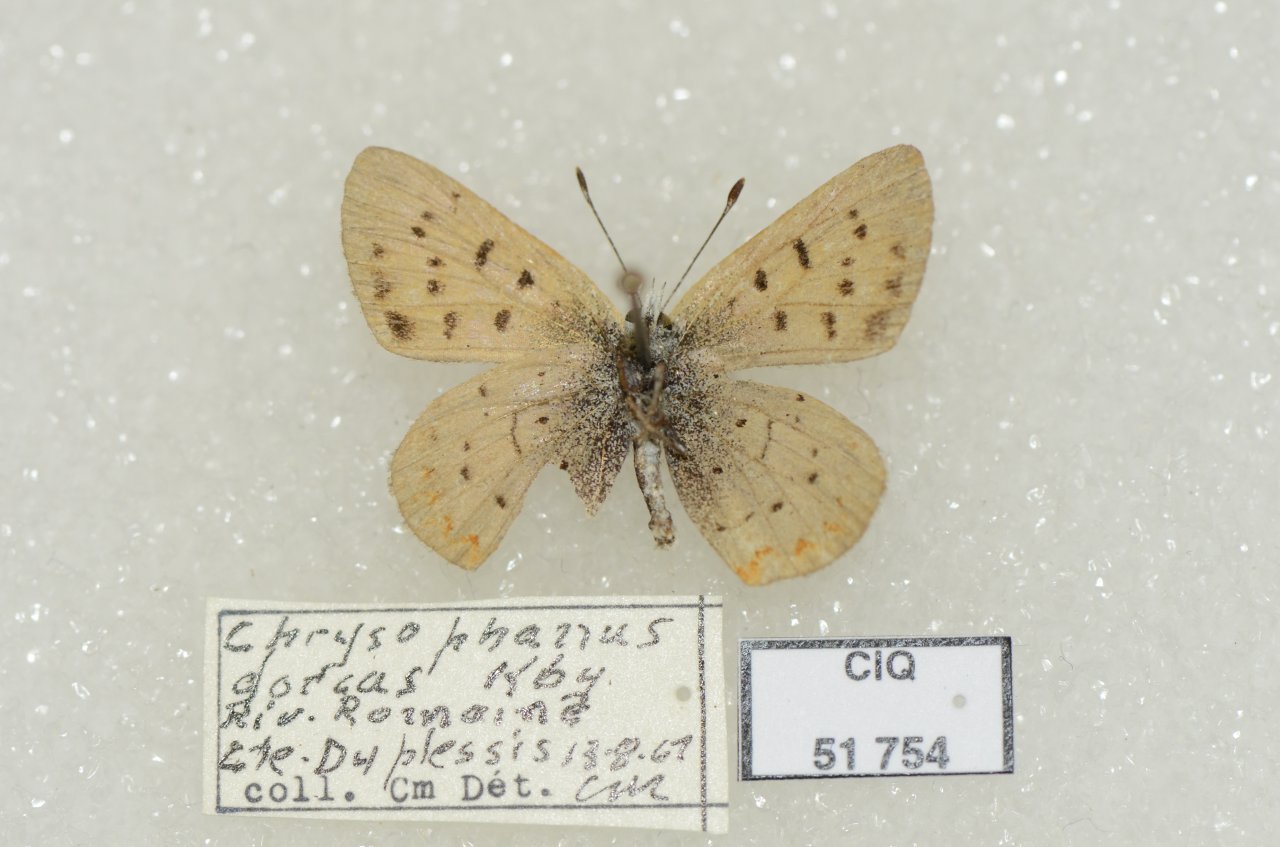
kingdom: Animalia
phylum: Arthropoda
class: Insecta
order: Lepidoptera
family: Lycaenidae
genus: Epidemia
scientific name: Epidemia dorcas
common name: Dorcas Copper
